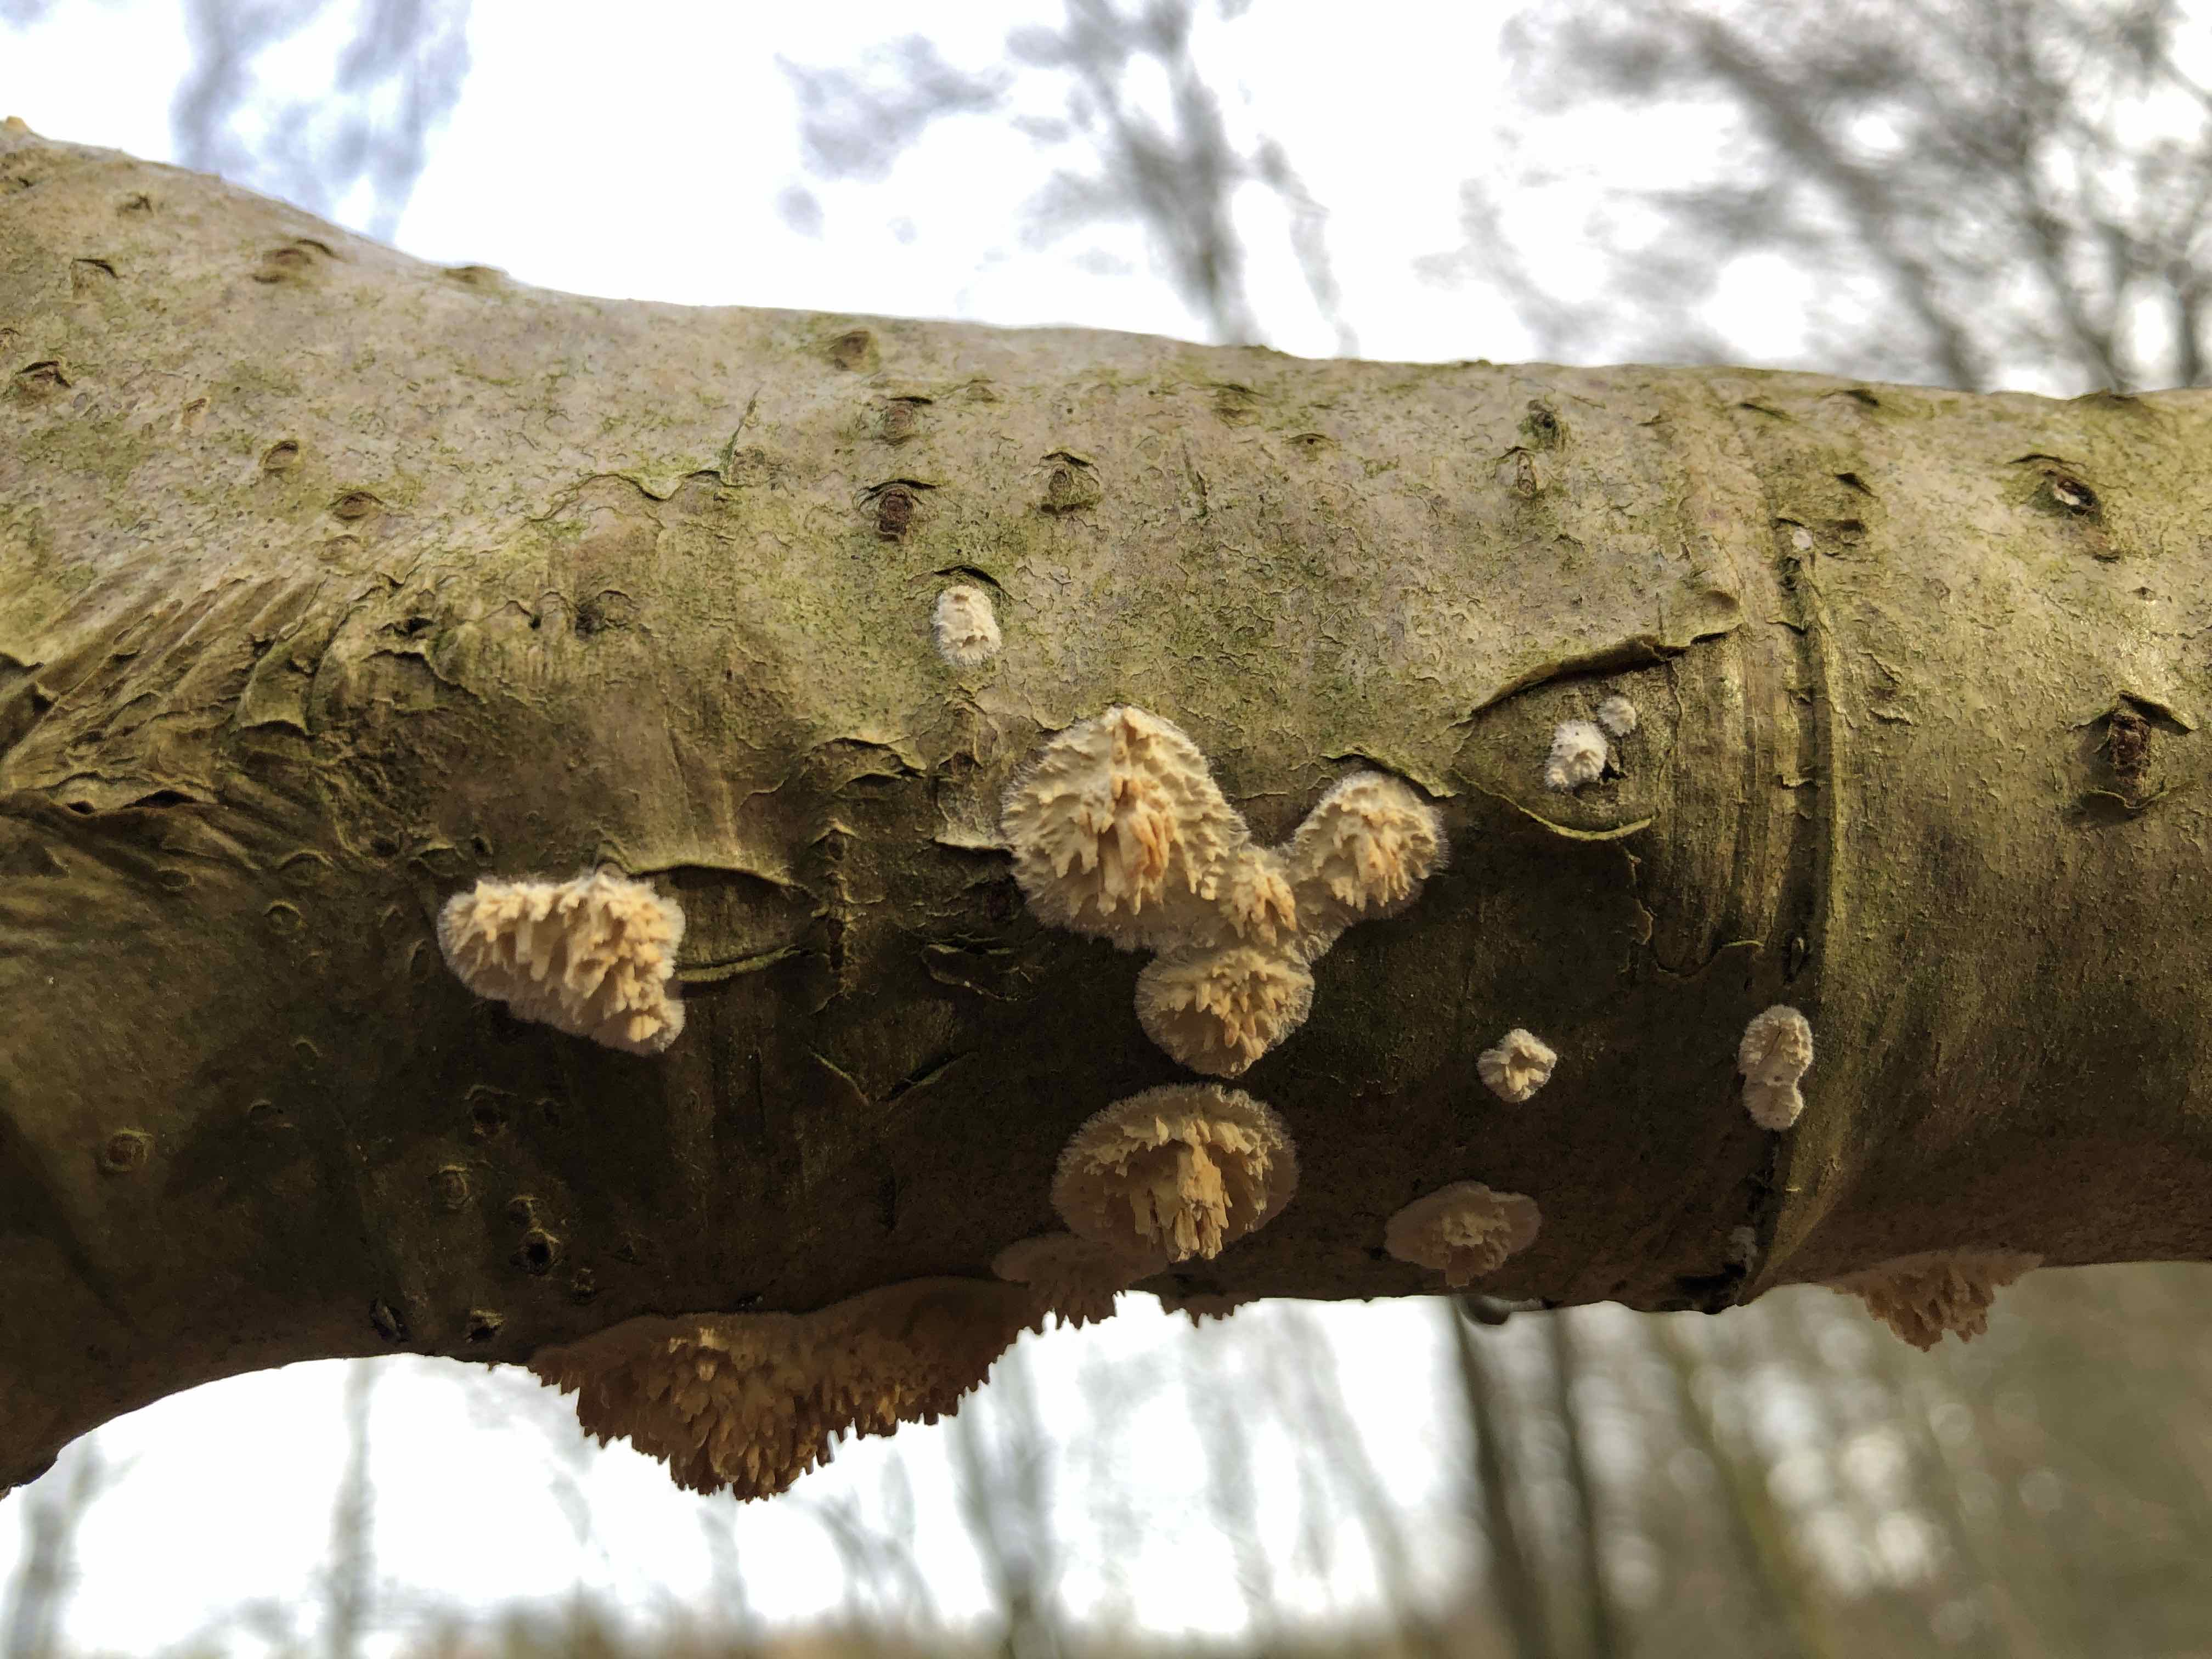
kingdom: Fungi
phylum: Basidiomycota
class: Agaricomycetes
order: Hymenochaetales
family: Schizoporaceae
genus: Xylodon
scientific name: Xylodon radula
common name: grovtandet kalkskind
